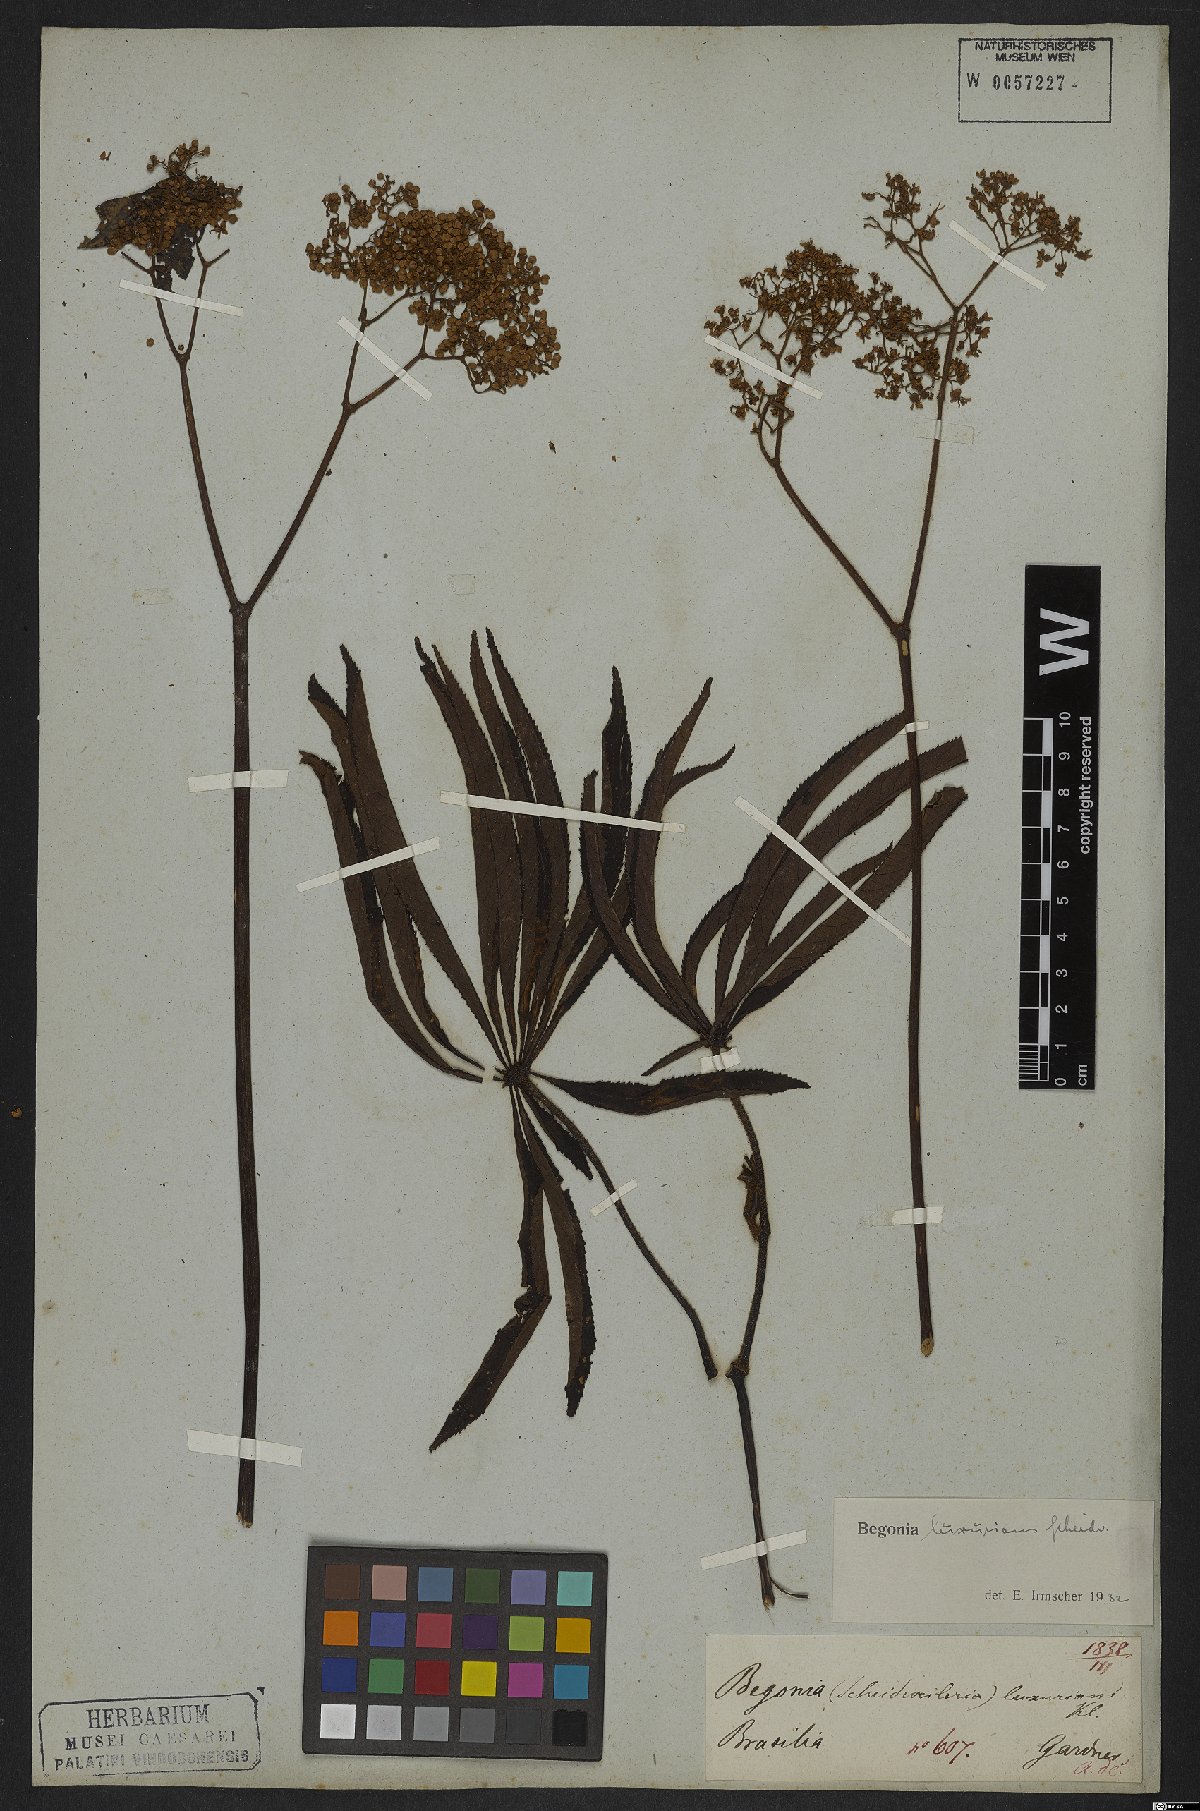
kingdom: Plantae
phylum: Tracheophyta
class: Magnoliopsida
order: Cucurbitales
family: Begoniaceae
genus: Begonia
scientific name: Begonia luxurians
